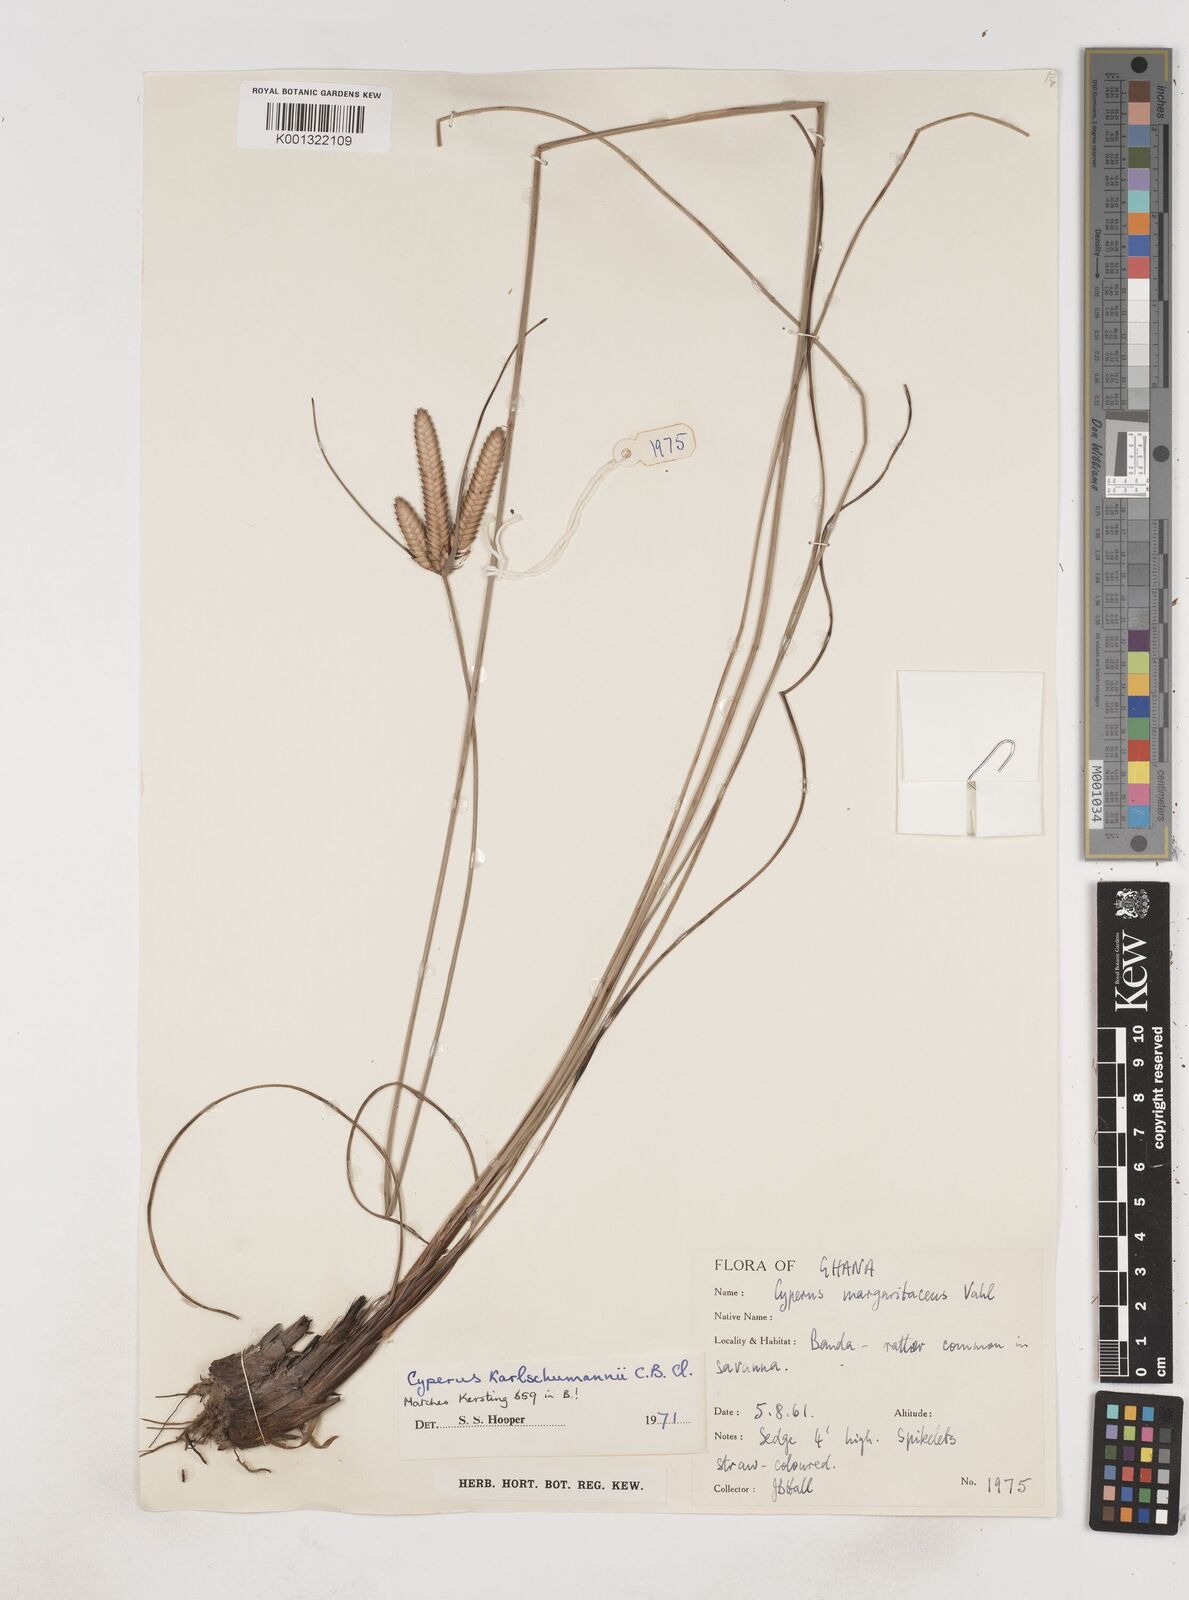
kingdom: Plantae
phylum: Tracheophyta
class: Liliopsida
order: Poales
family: Cyperaceae
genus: Cyperus
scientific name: Cyperus karlschumannii
